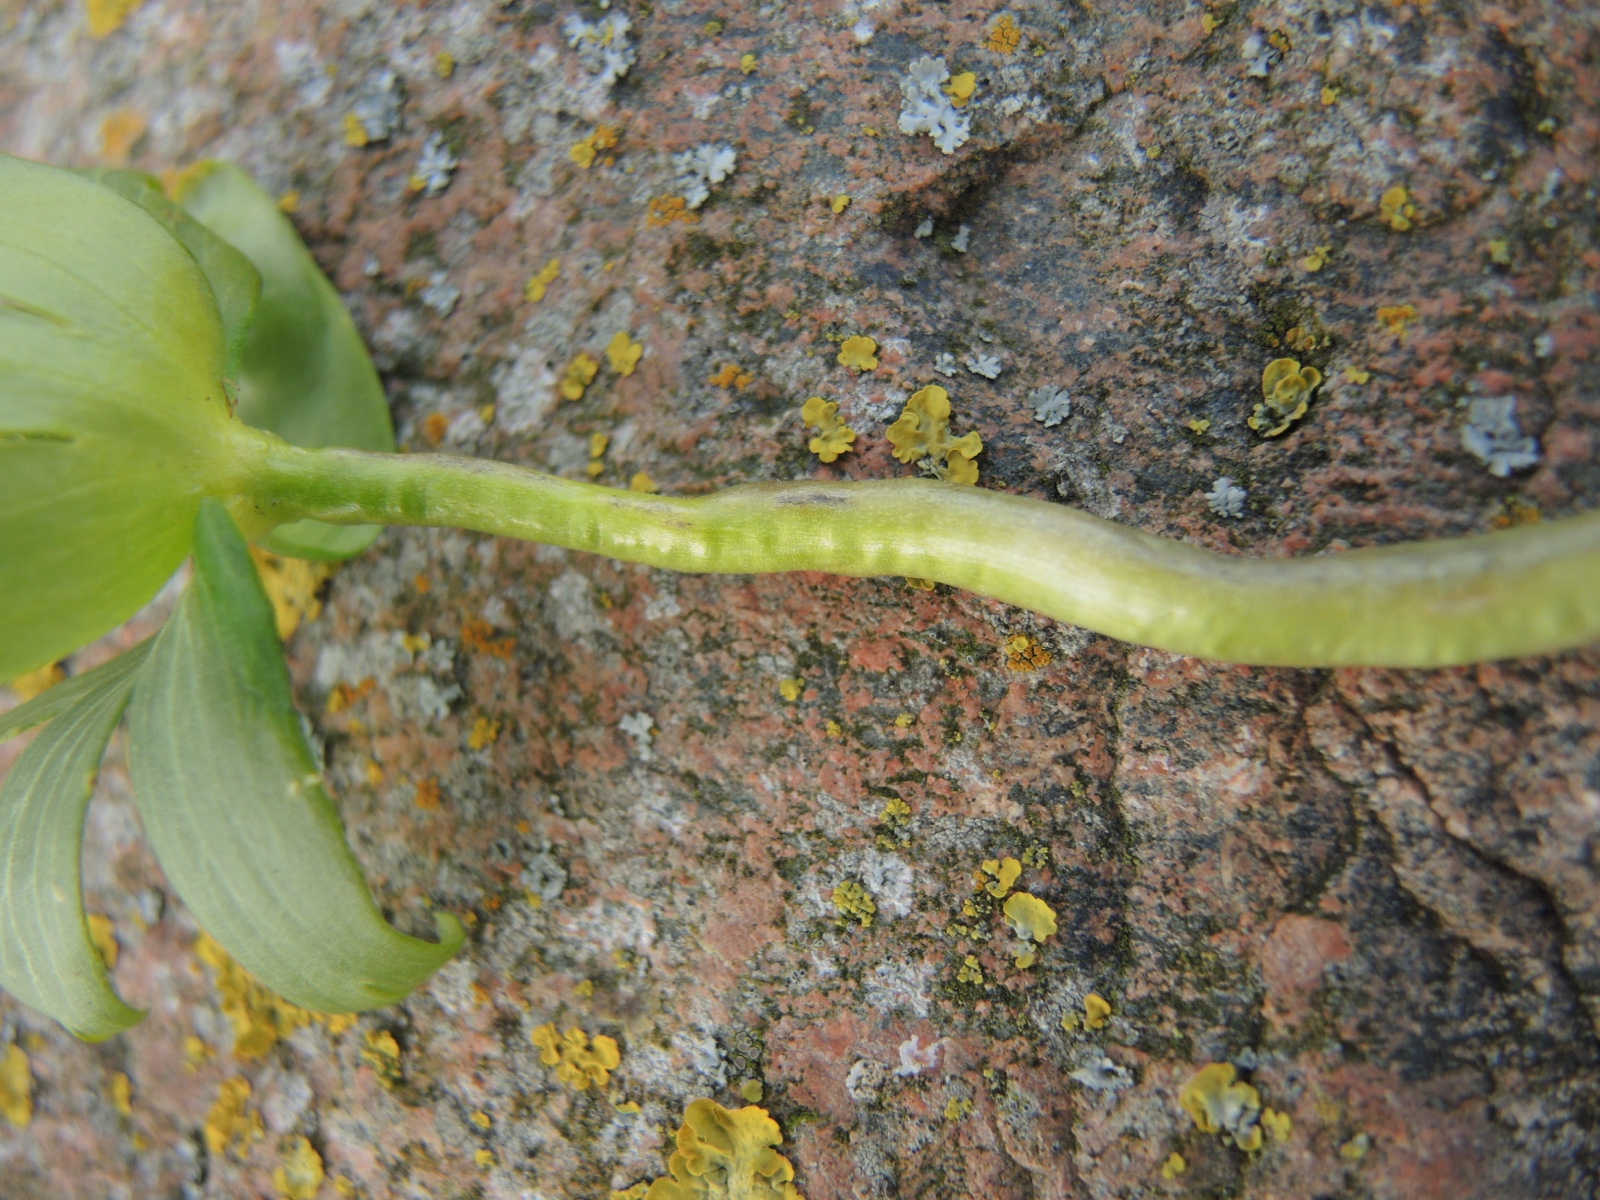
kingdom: Fungi
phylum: Basidiomycota
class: Ustilaginomycetes
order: Urocystidales
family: Urocystidaceae
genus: Urocystis
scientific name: Urocystis eranthidis
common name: erantis-brand
